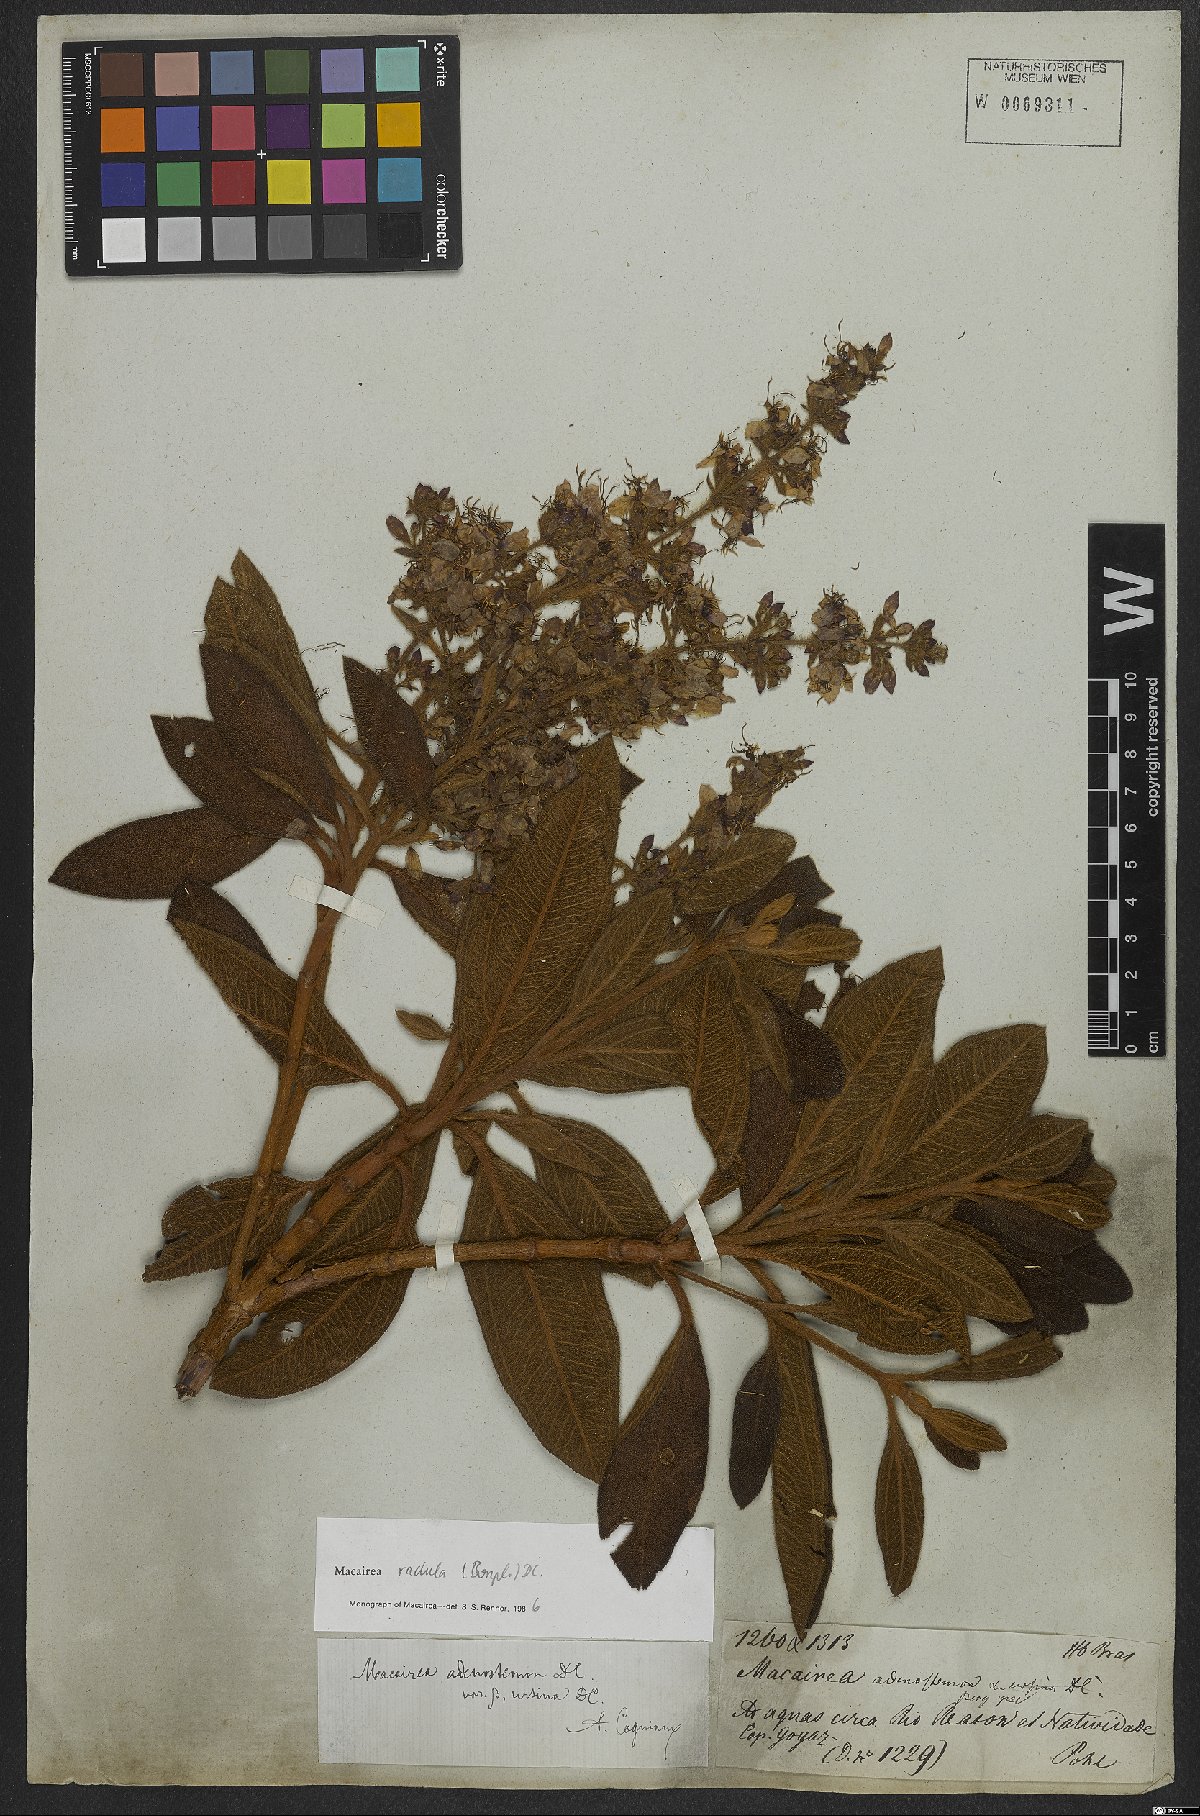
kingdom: Plantae
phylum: Tracheophyta
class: Magnoliopsida
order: Myrtales
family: Melastomataceae
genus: Macairea
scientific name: Macairea radula
